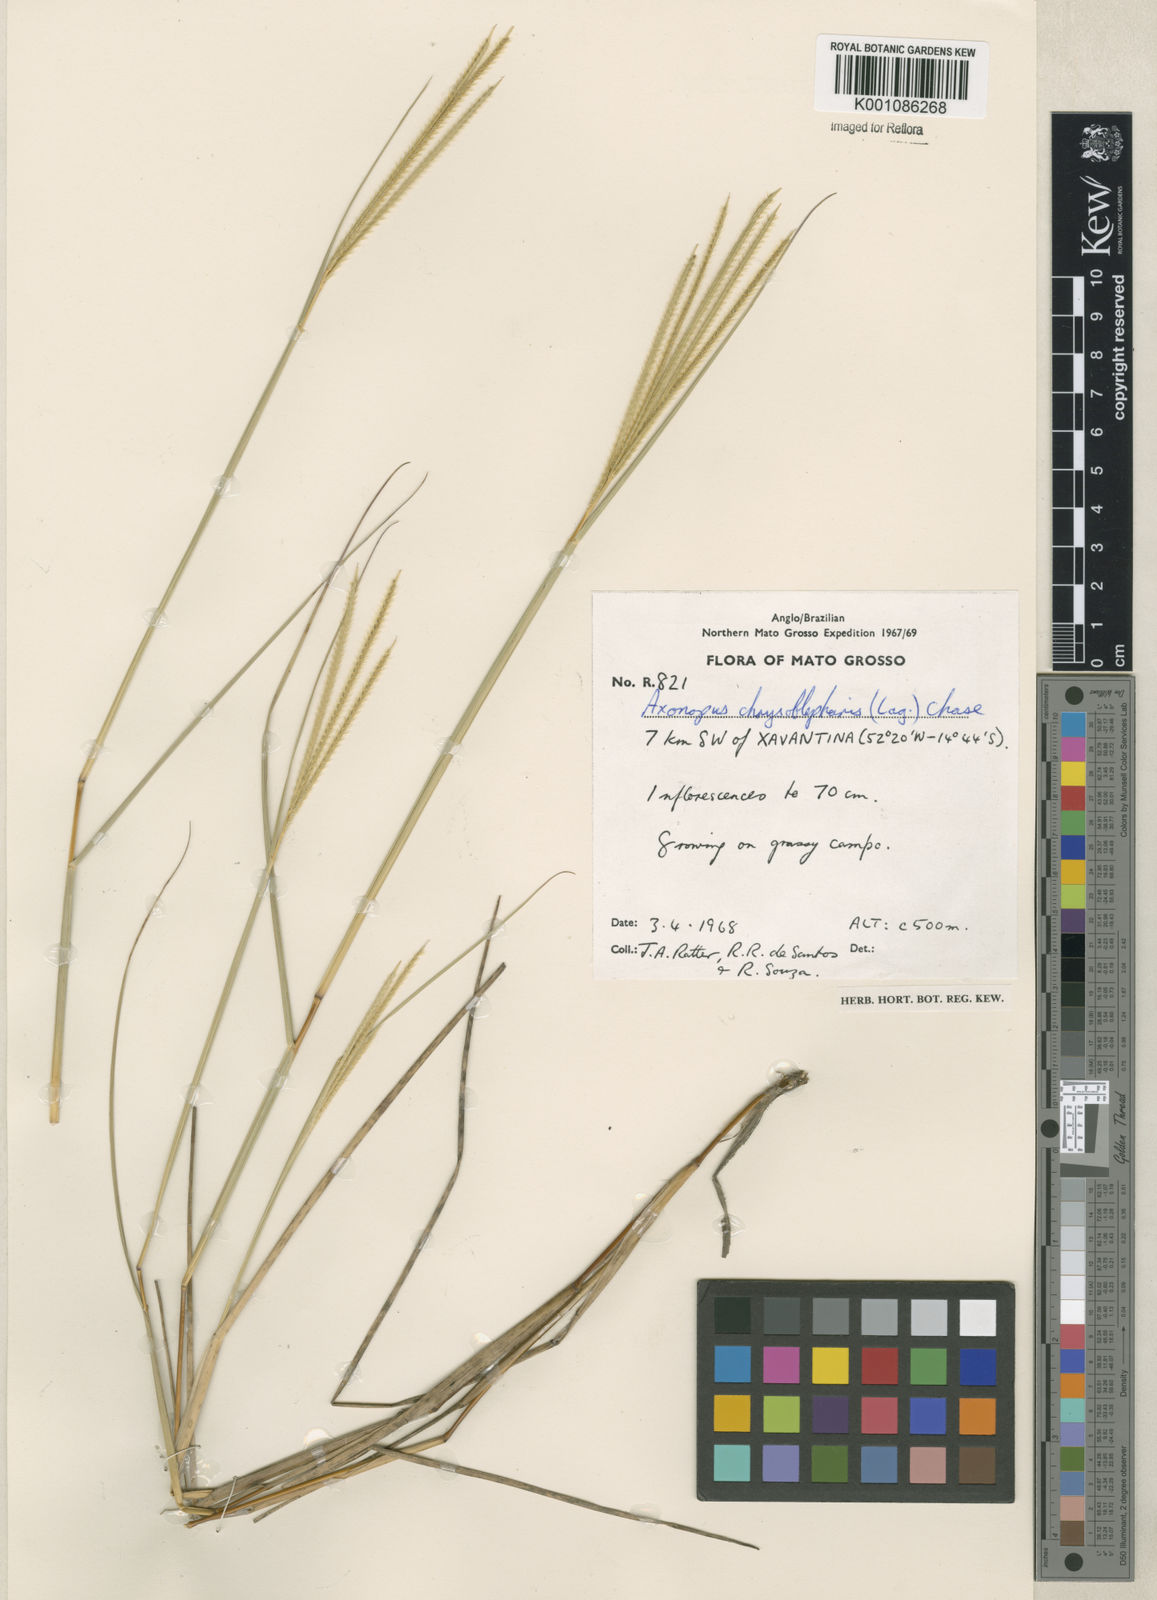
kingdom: Plantae
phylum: Tracheophyta
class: Liliopsida
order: Poales
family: Poaceae
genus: Axonopus
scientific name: Axonopus chrysoblepharis
